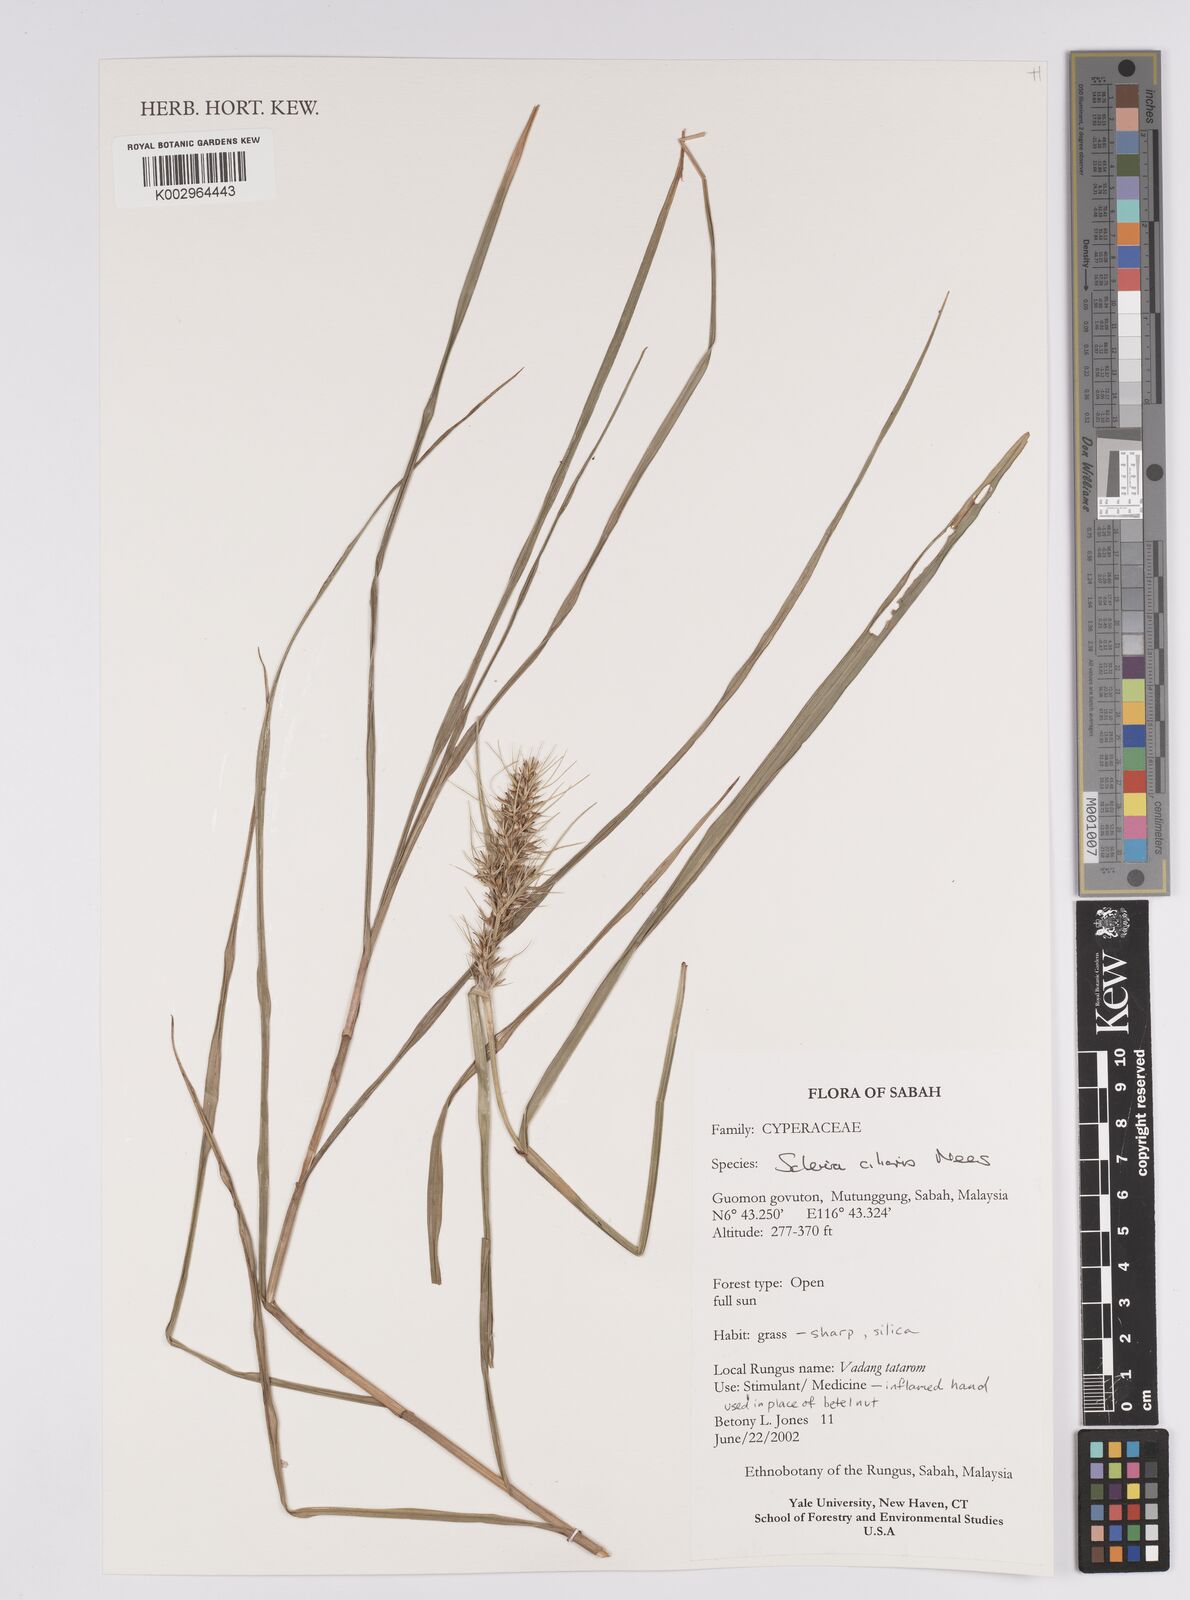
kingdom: Plantae
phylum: Tracheophyta
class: Liliopsida
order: Poales
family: Cyperaceae
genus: Scleria
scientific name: Scleria ciliaris
